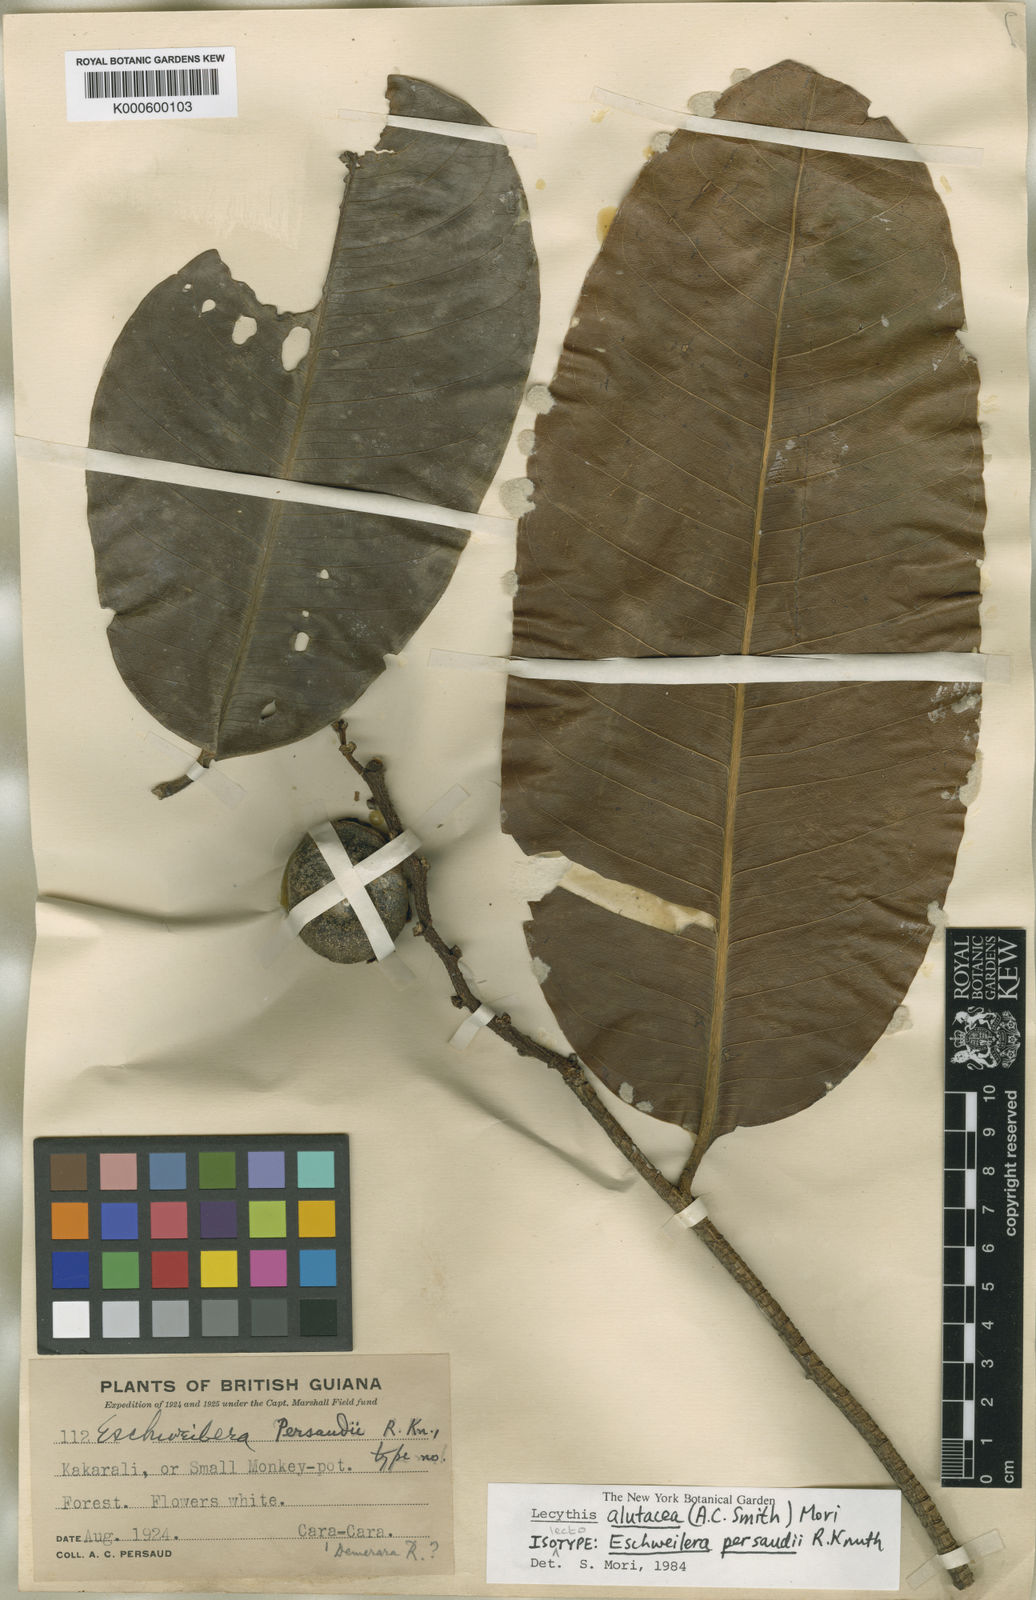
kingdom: Plantae
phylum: Tracheophyta
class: Magnoliopsida
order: Ericales
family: Lecythidaceae
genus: Lecythis
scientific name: Lecythis alutacea
